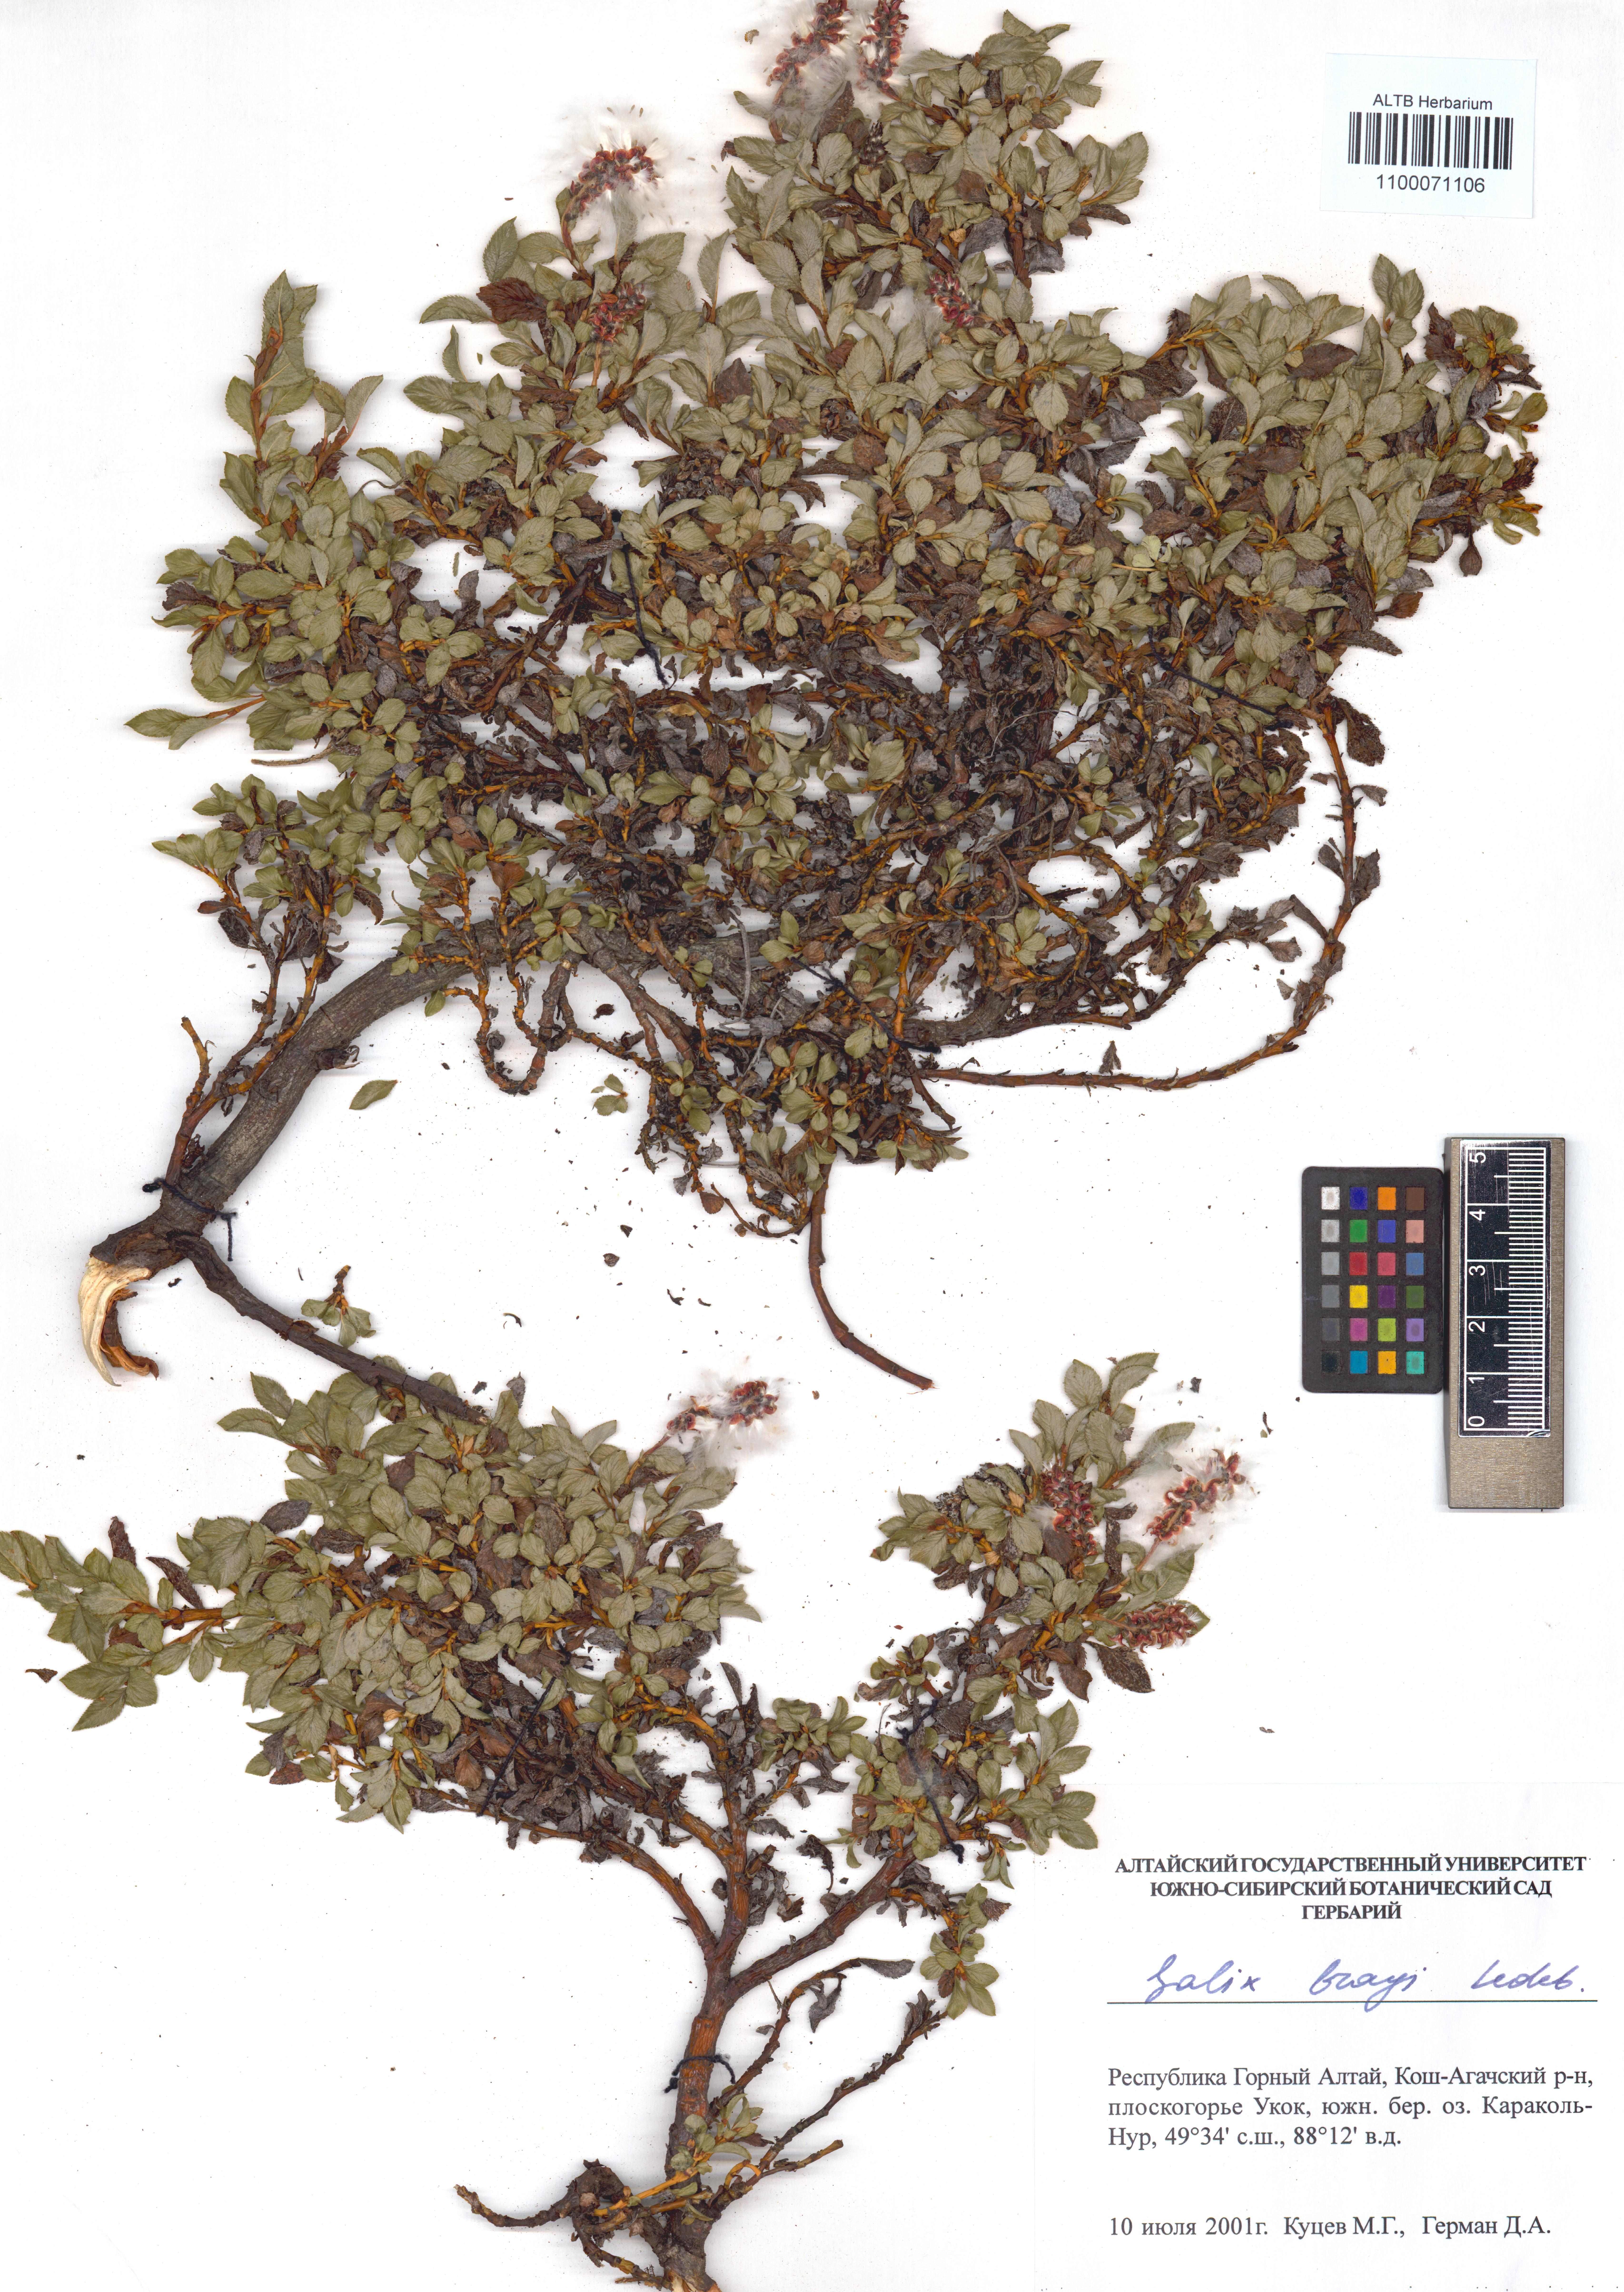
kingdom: Plantae
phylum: Tracheophyta
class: Magnoliopsida
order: Malpighiales
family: Salicaceae
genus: Salix
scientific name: Salix berberifolia
